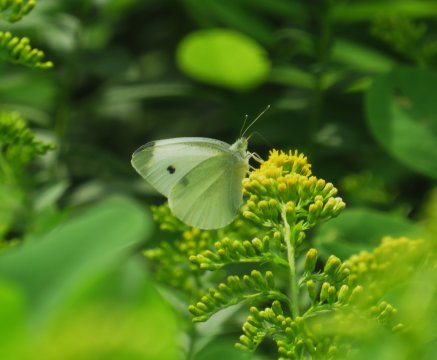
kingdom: Animalia
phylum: Arthropoda
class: Insecta
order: Lepidoptera
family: Pieridae
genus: Pieris
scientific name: Pieris rapae
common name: Cabbage White
